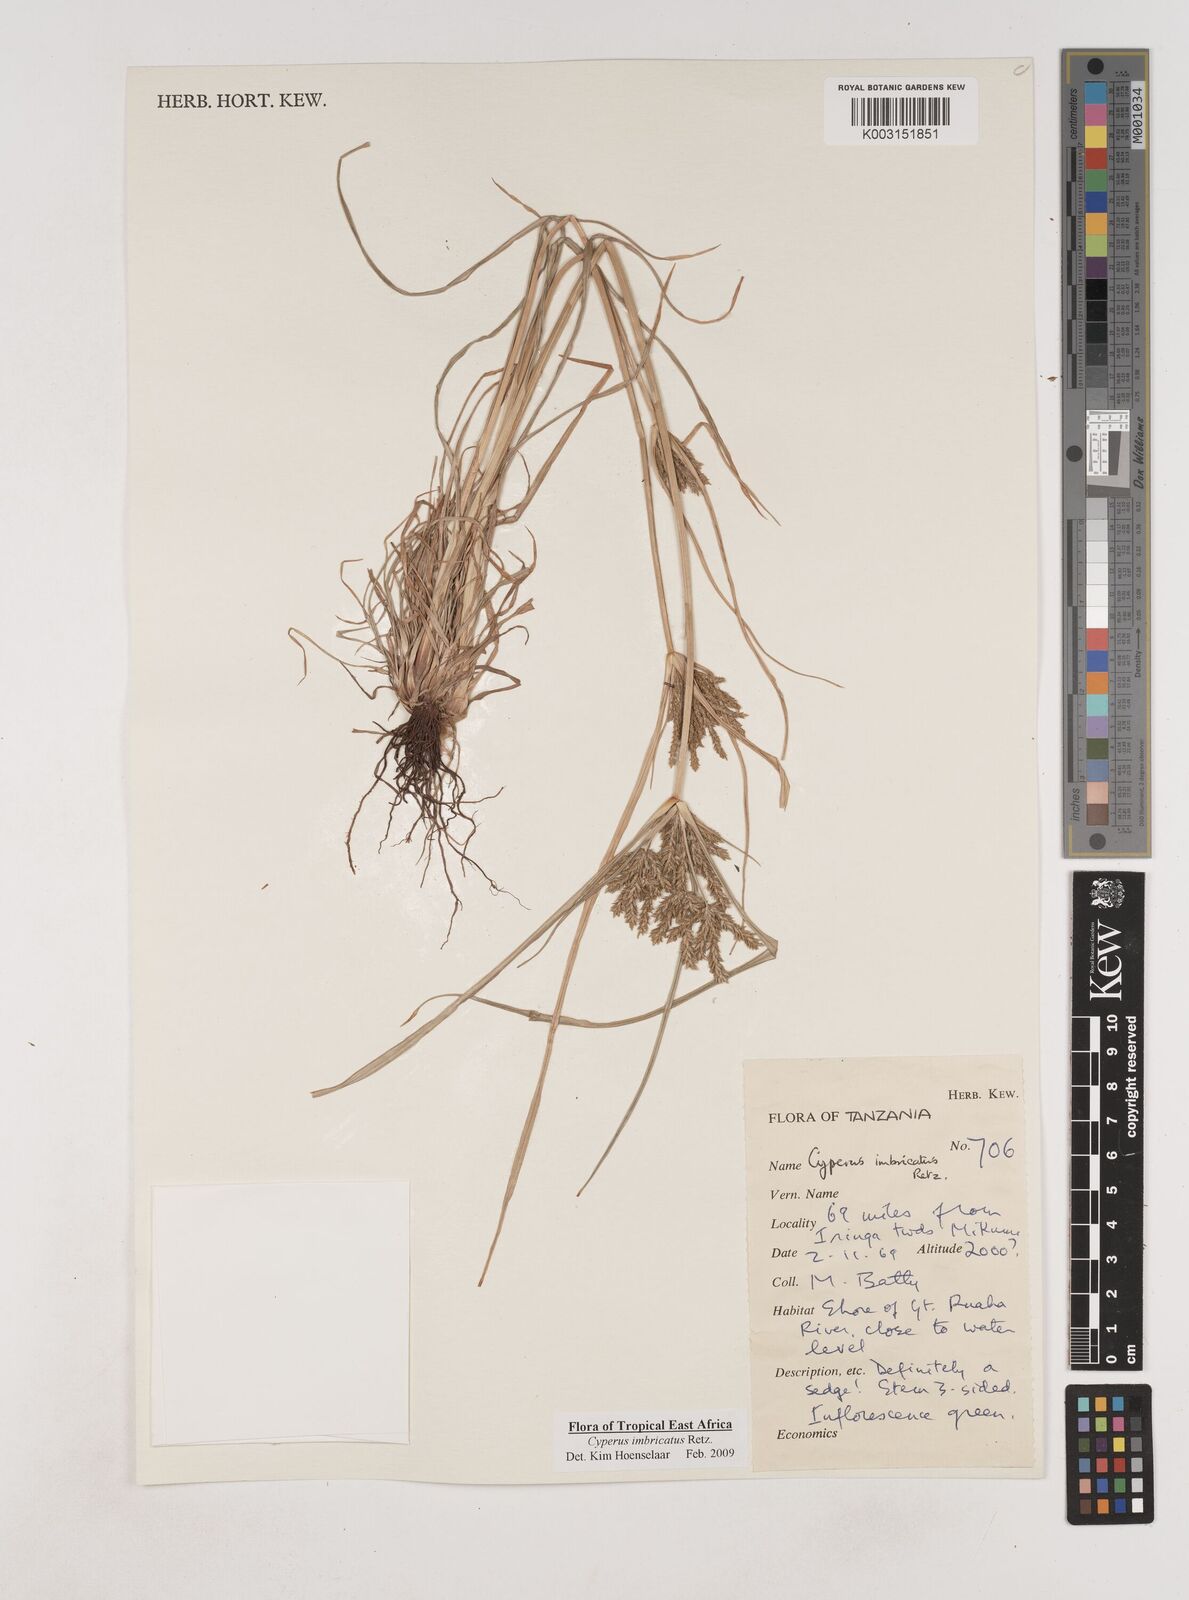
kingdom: Plantae
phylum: Tracheophyta
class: Liliopsida
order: Poales
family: Cyperaceae
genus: Cyperus
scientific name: Cyperus imbricatus
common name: Shingle flatsedge
